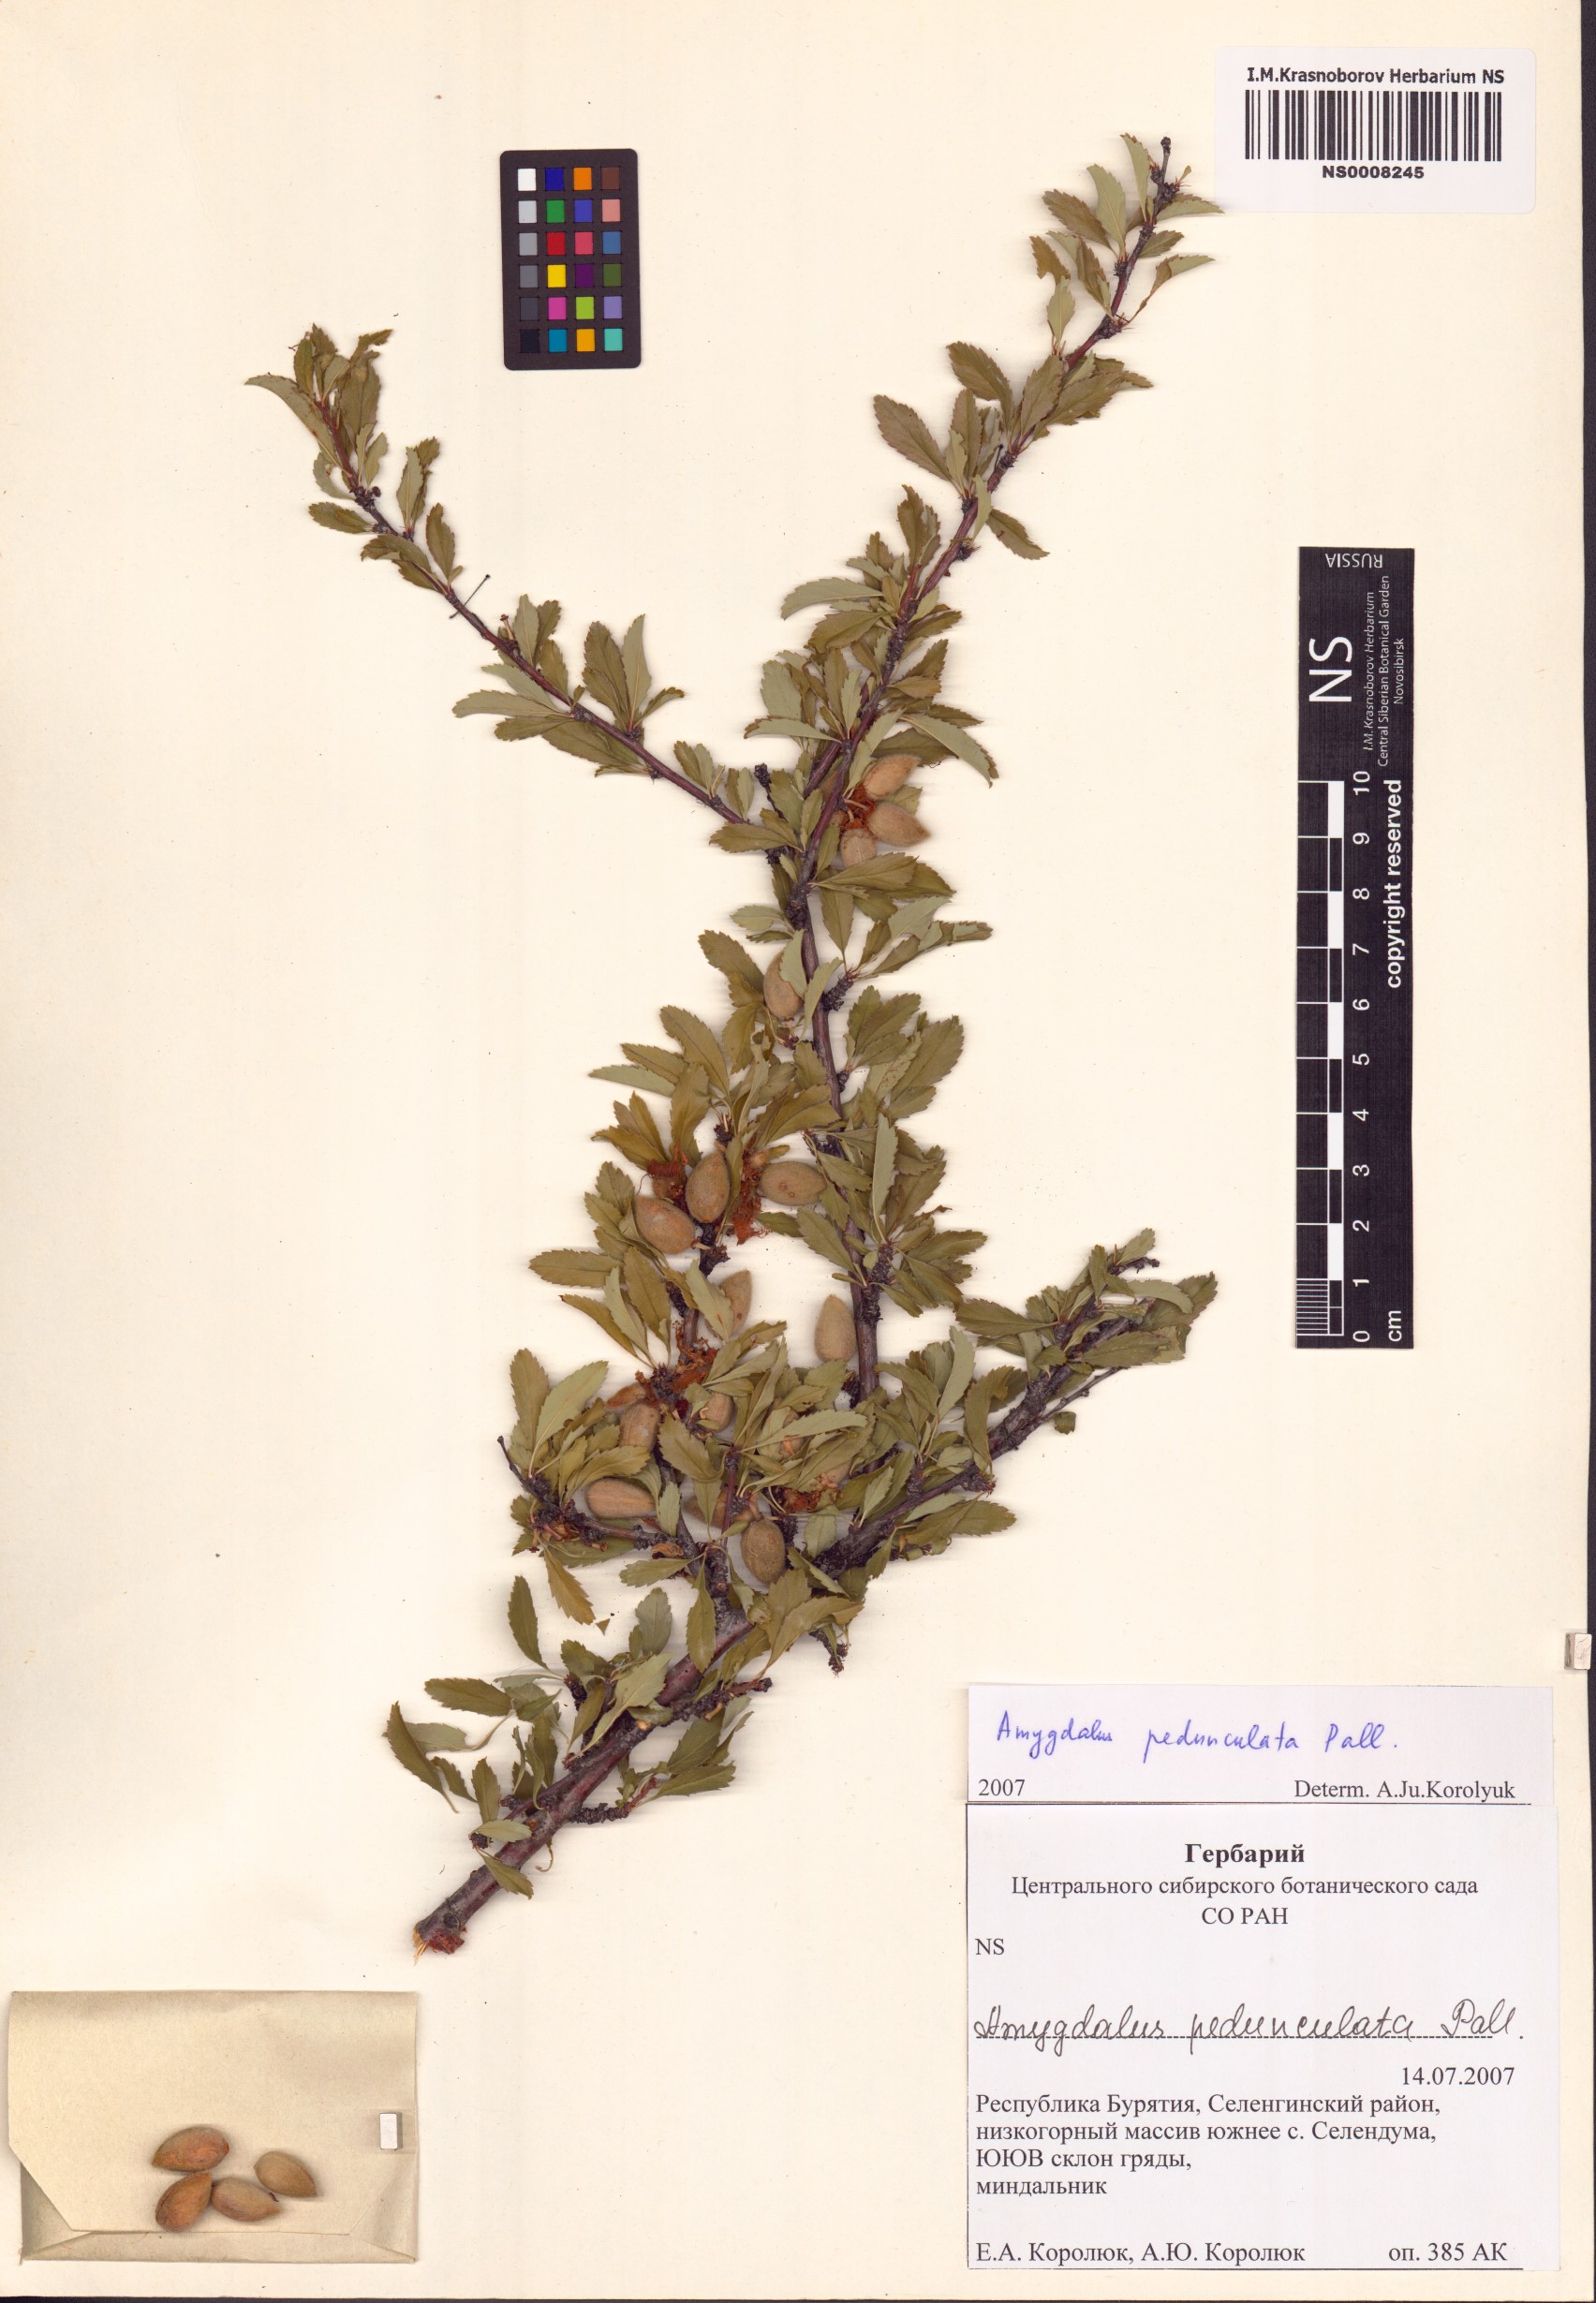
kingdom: Plantae
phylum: Tracheophyta
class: Magnoliopsida
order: Rosales
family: Rosaceae
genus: Prunus
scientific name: Prunus pedunculata
